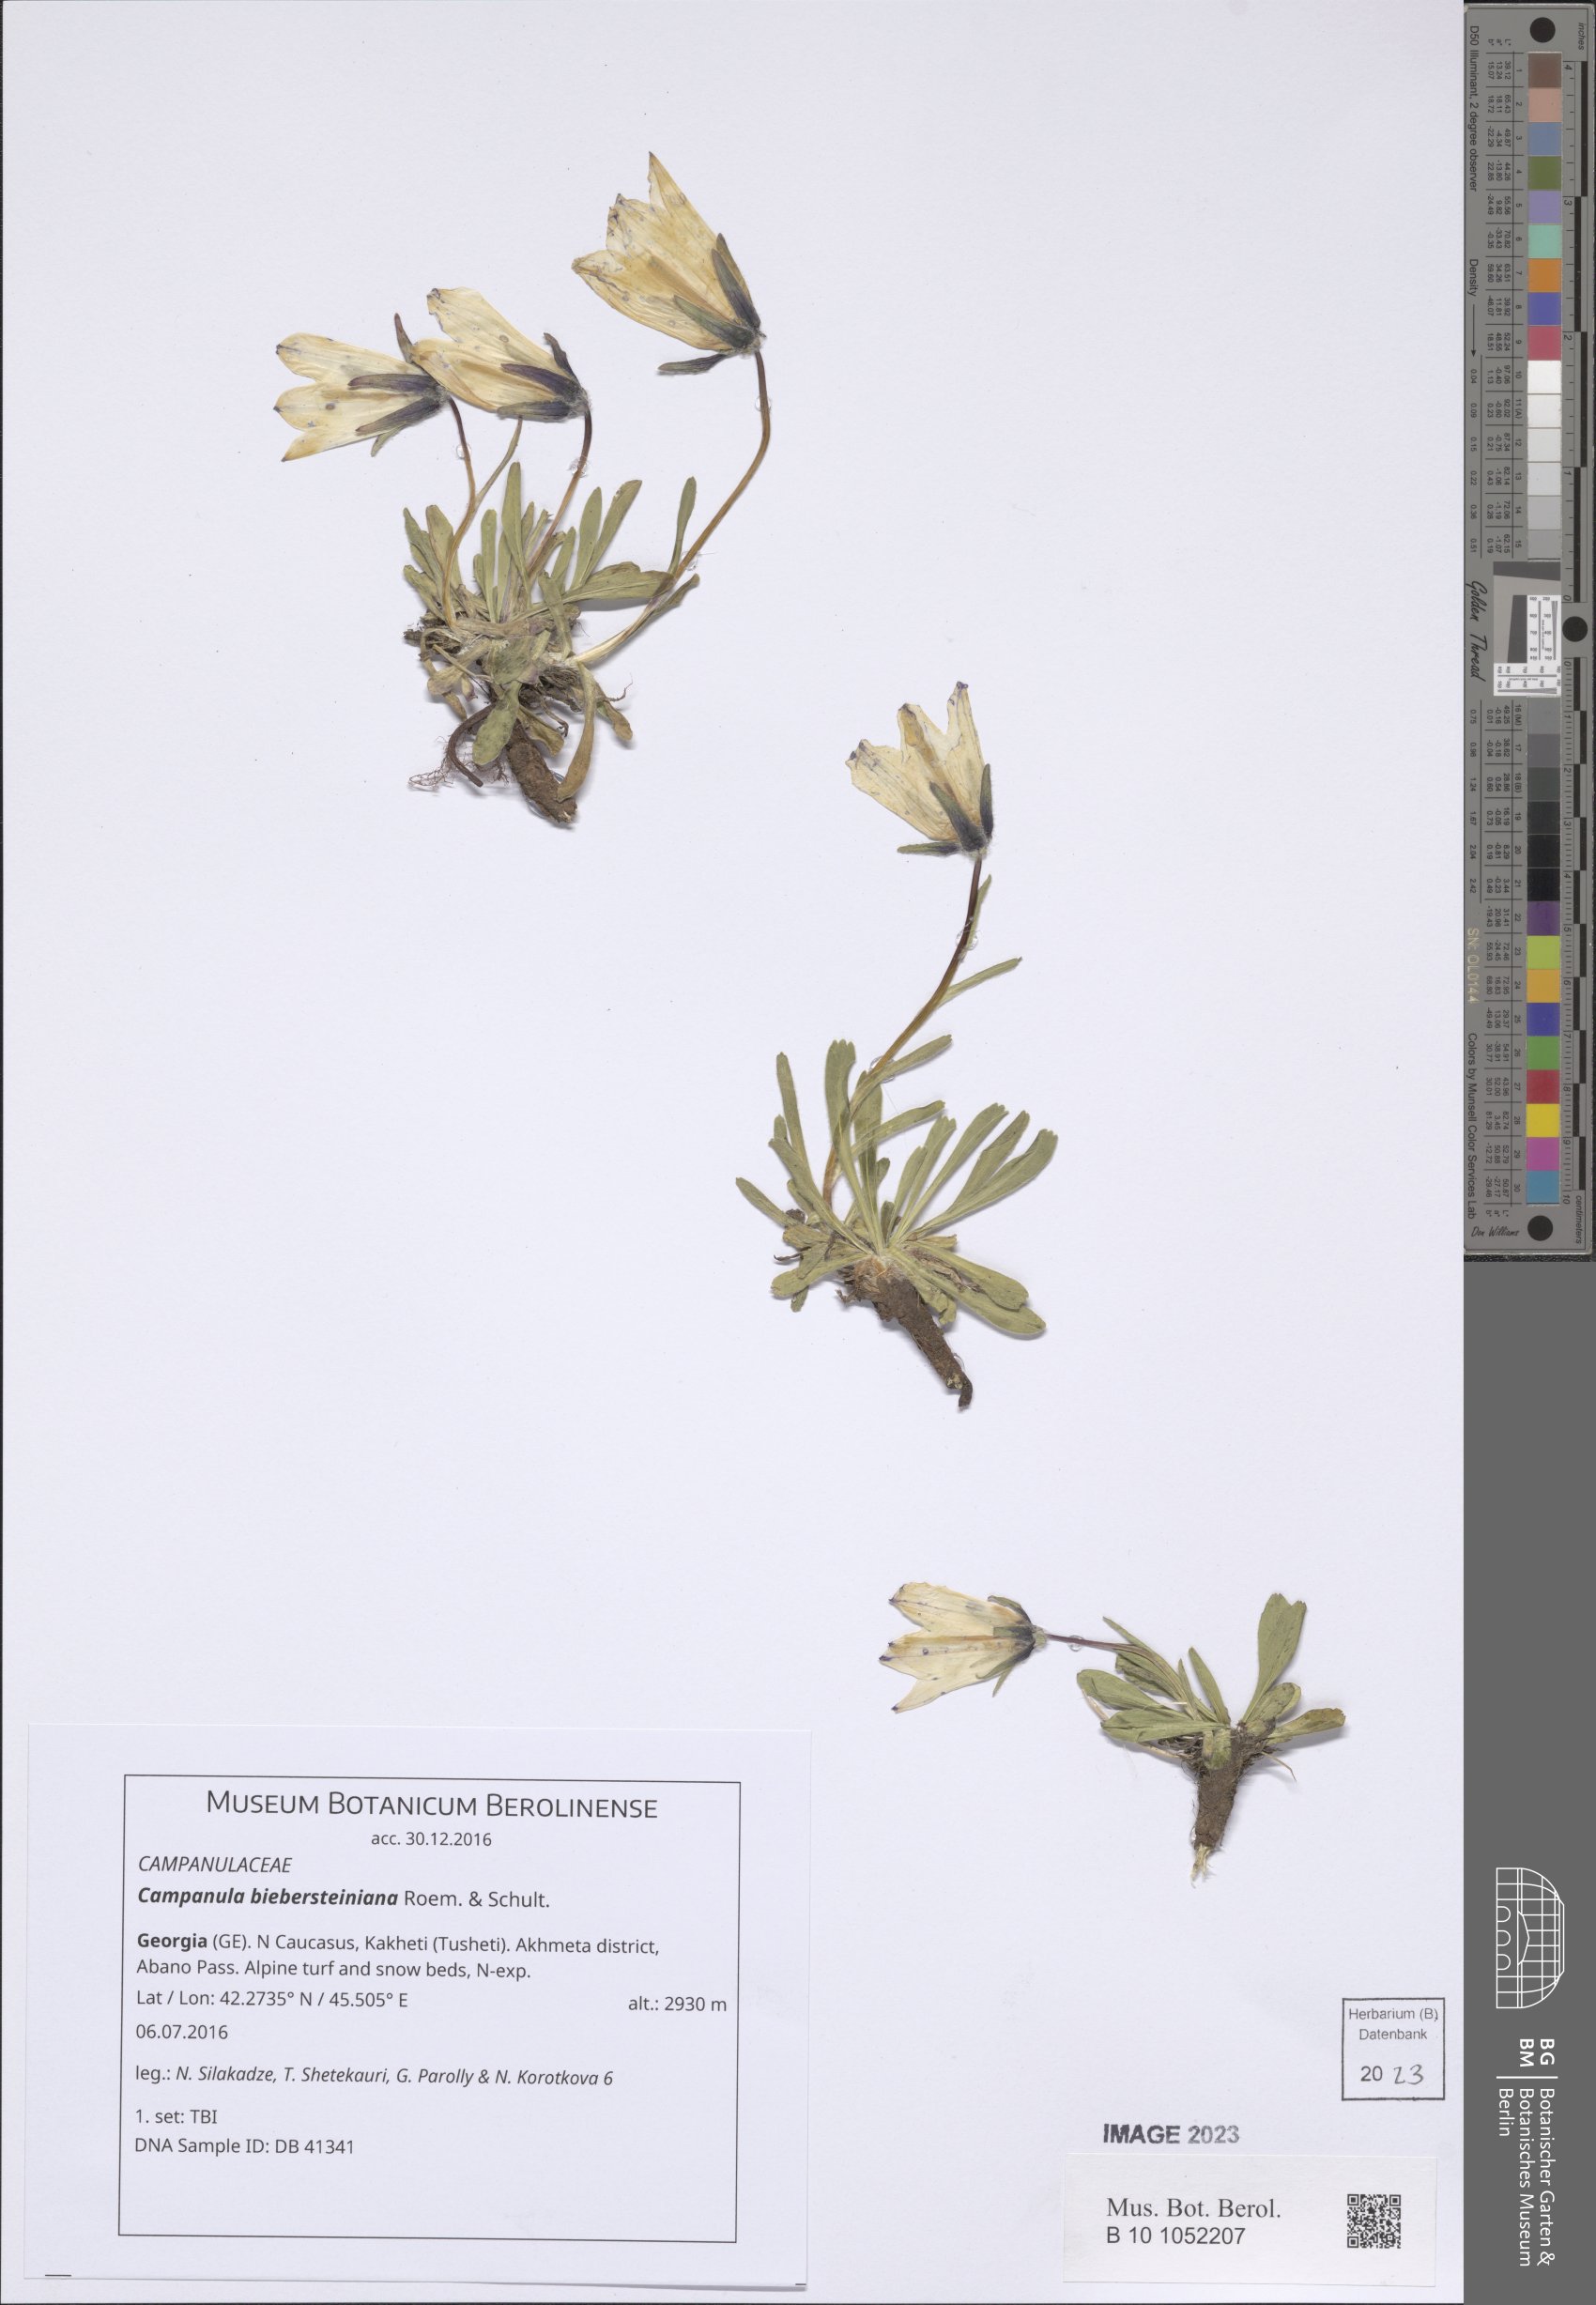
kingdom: Plantae
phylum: Tracheophyta
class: Magnoliopsida
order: Asterales
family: Campanulaceae
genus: Campanula
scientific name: Campanula tridentata
